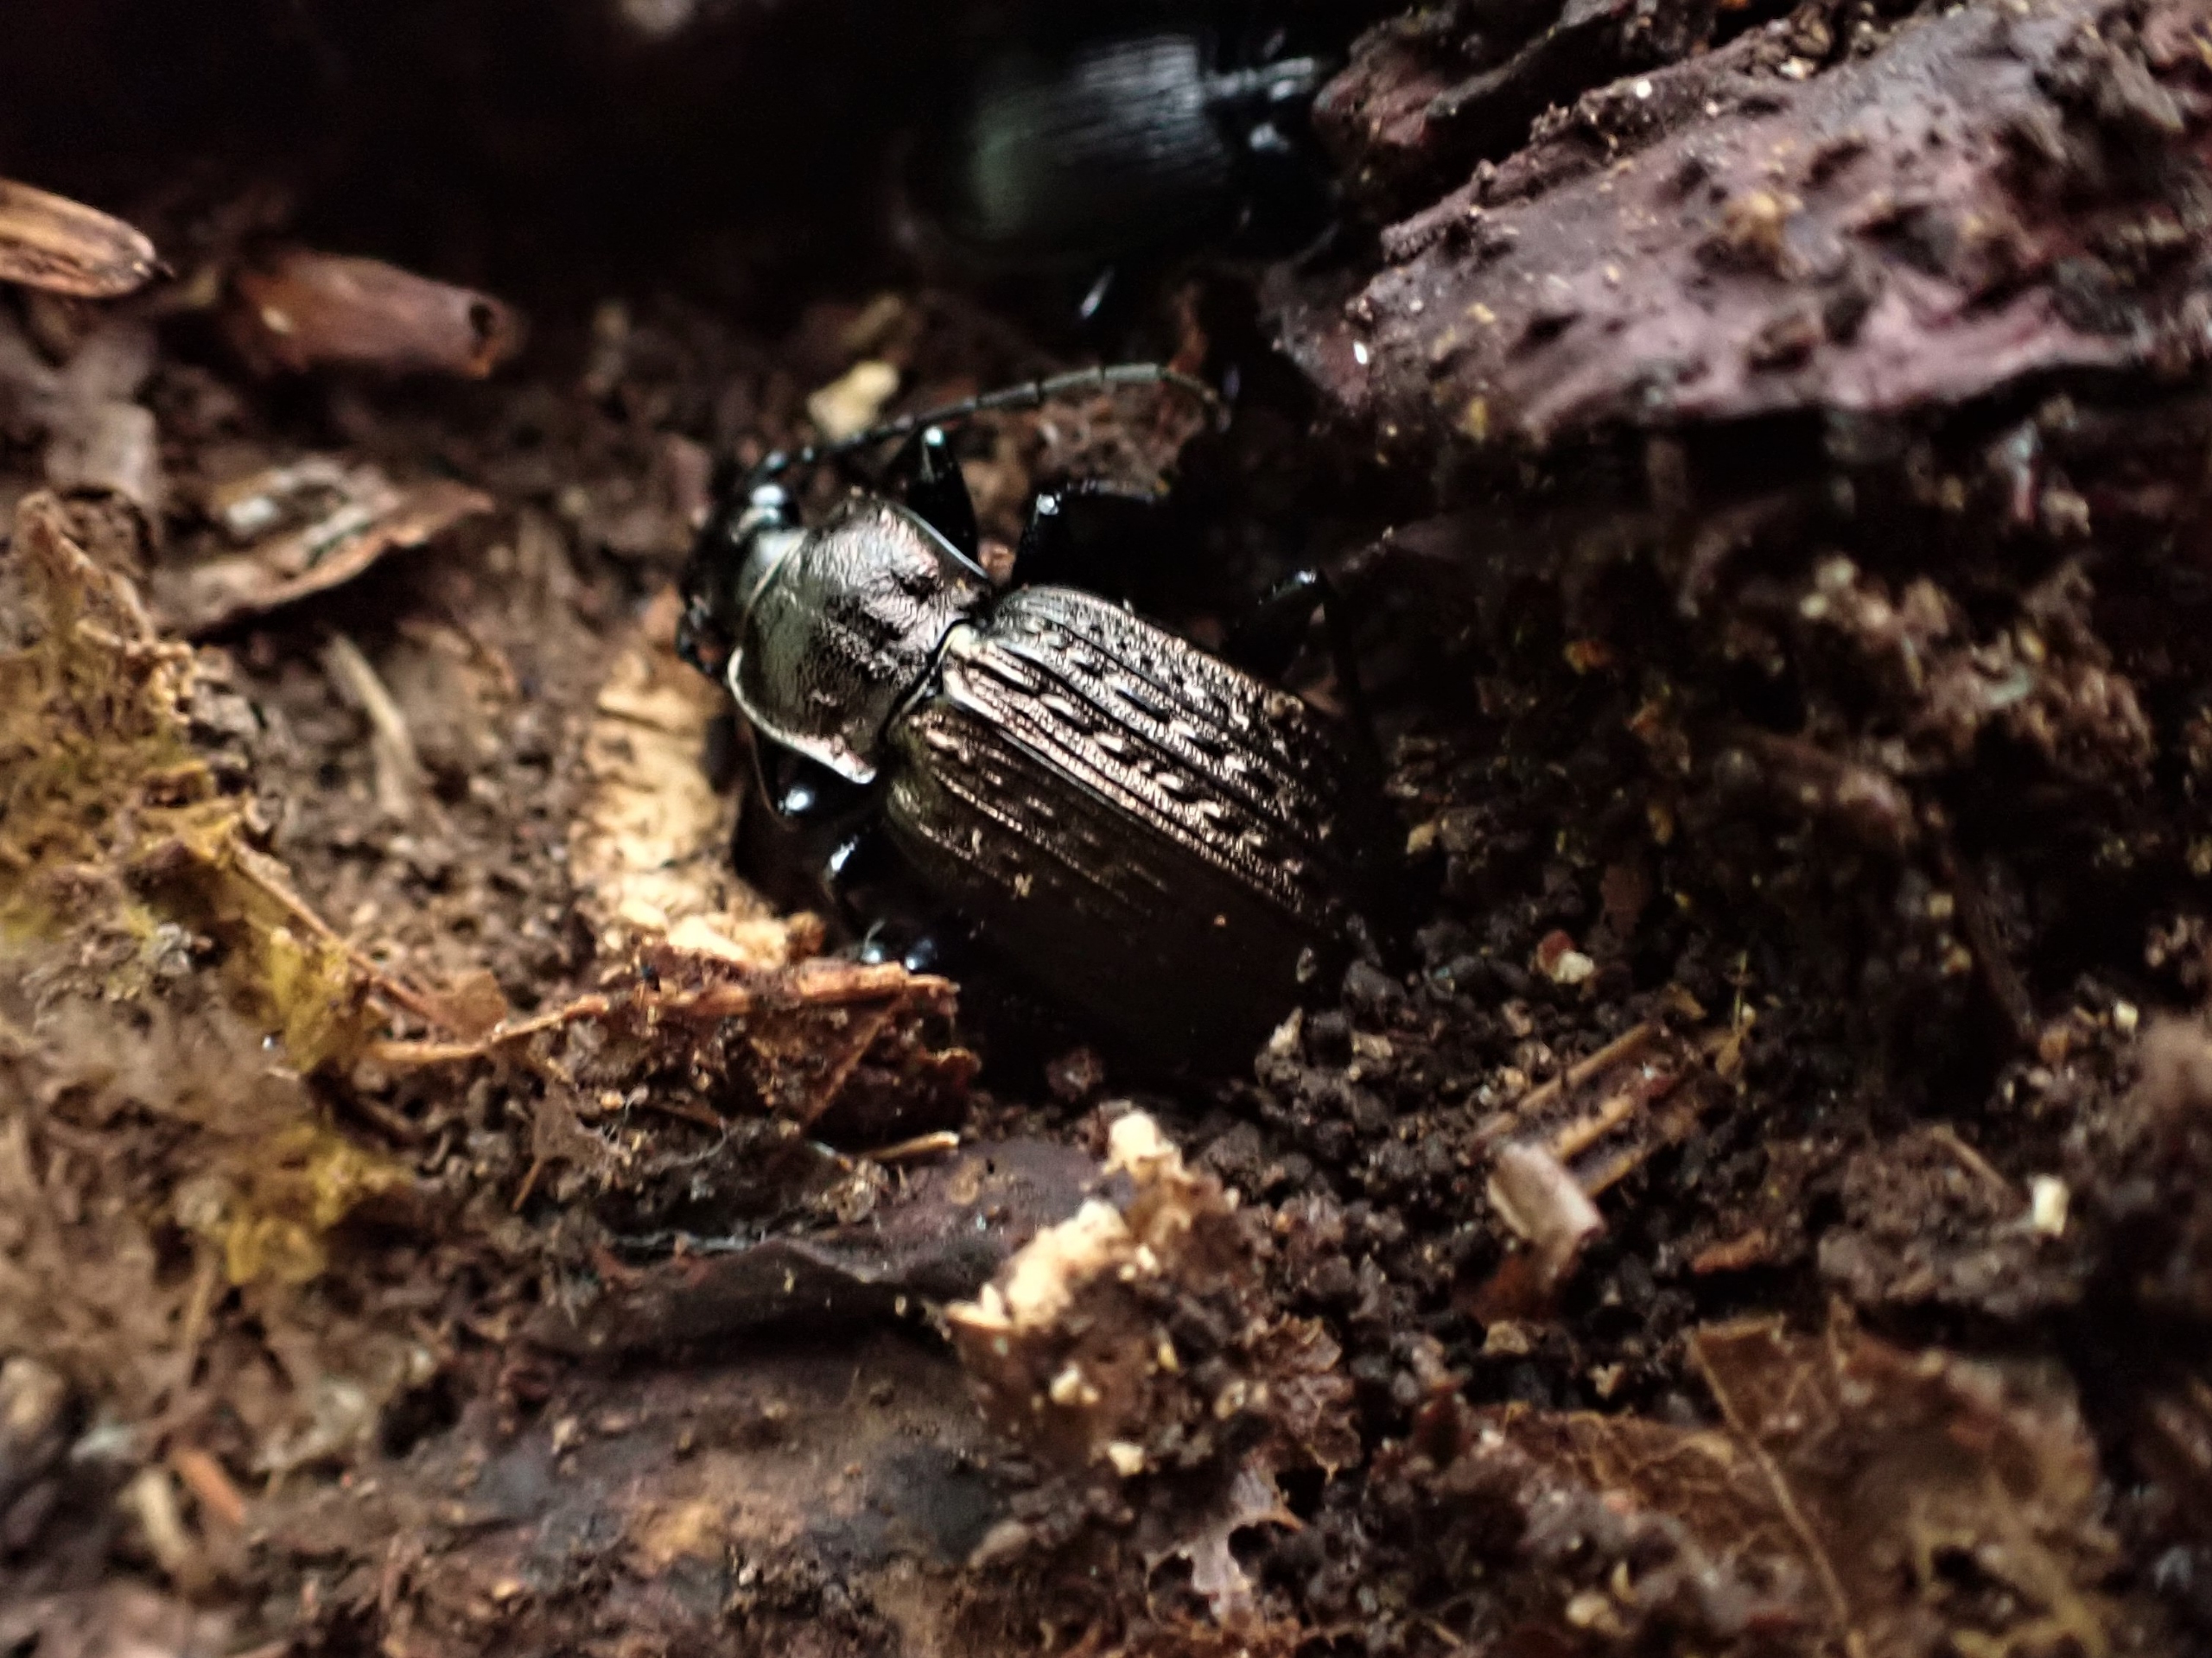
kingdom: Animalia
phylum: Arthropoda
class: Insecta
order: Coleoptera
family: Carabidae
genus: Carabus
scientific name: Carabus granulatus
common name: Kornet løber
